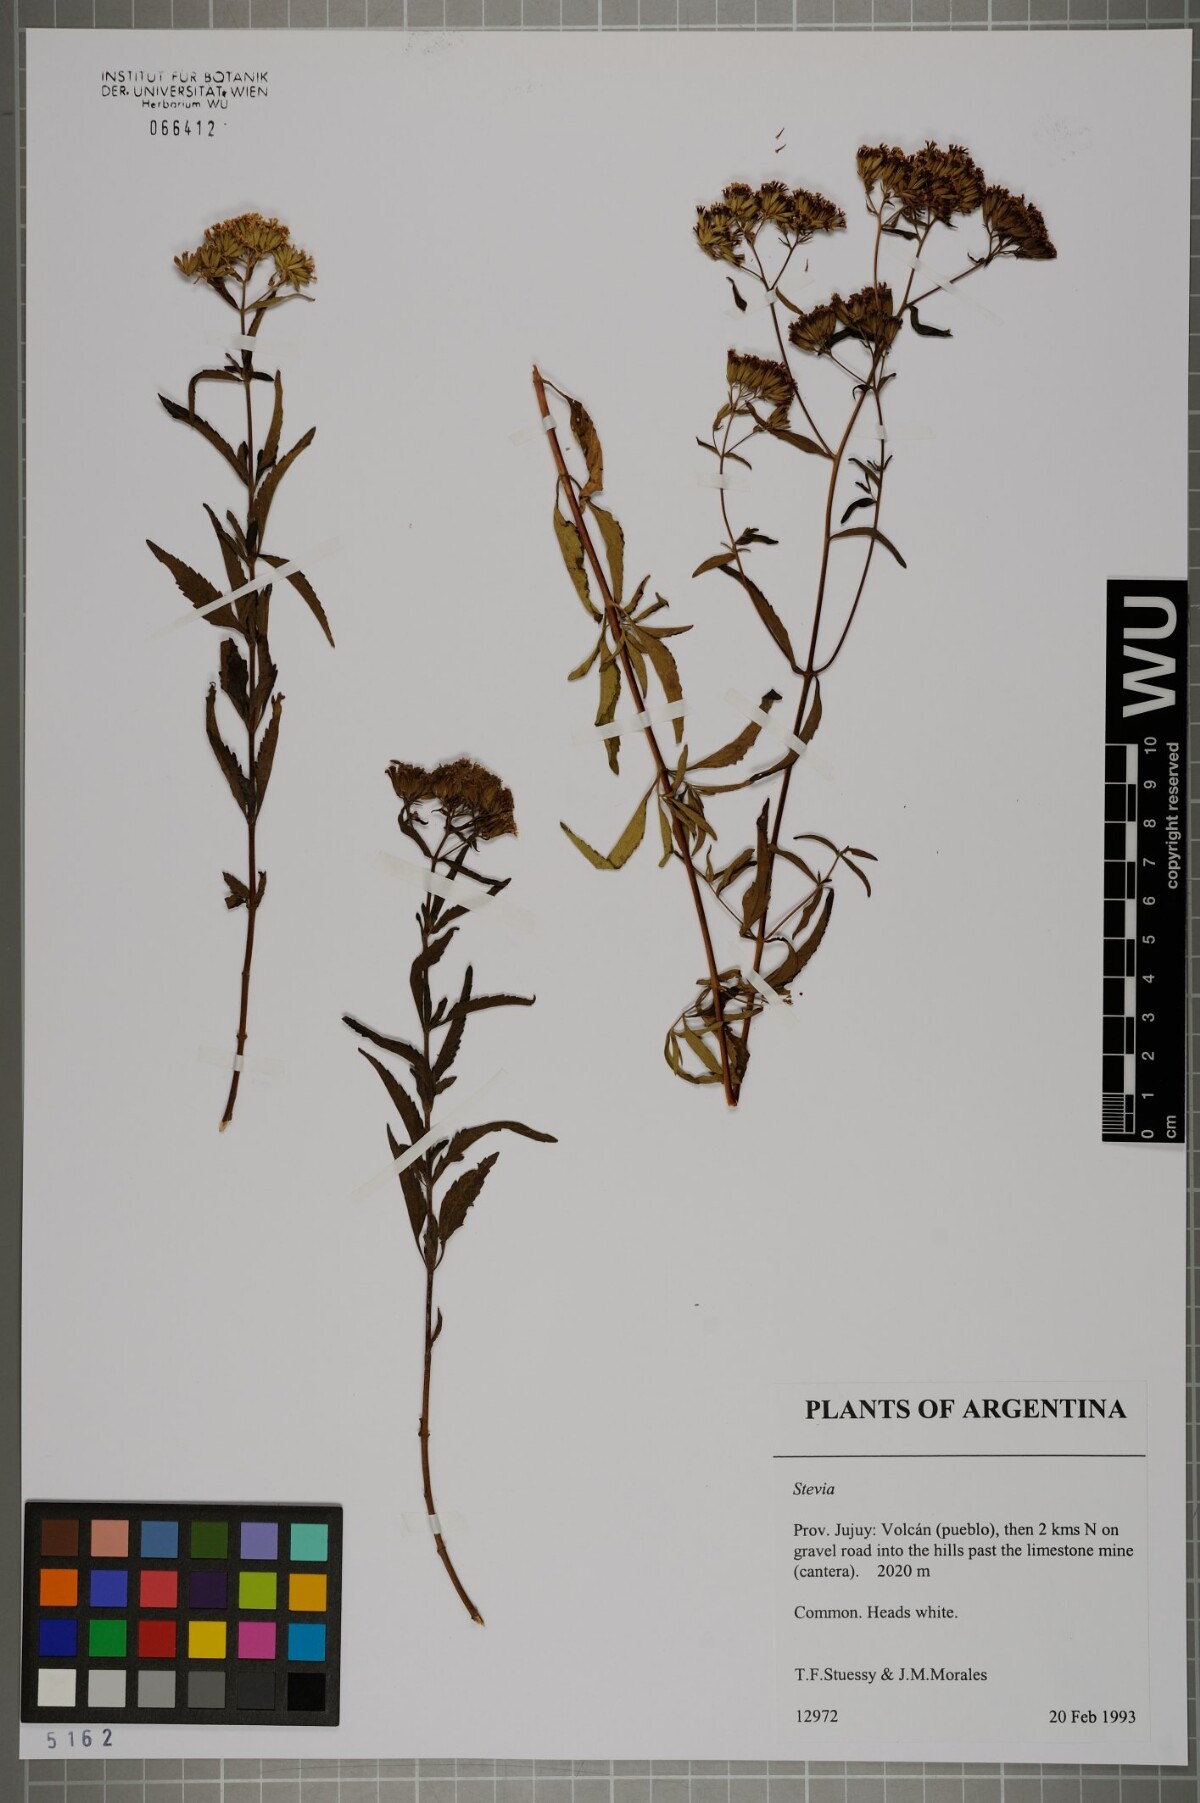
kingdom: Plantae
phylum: Tracheophyta
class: Magnoliopsida
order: Asterales
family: Asteraceae
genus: Stevia
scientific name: Stevia
